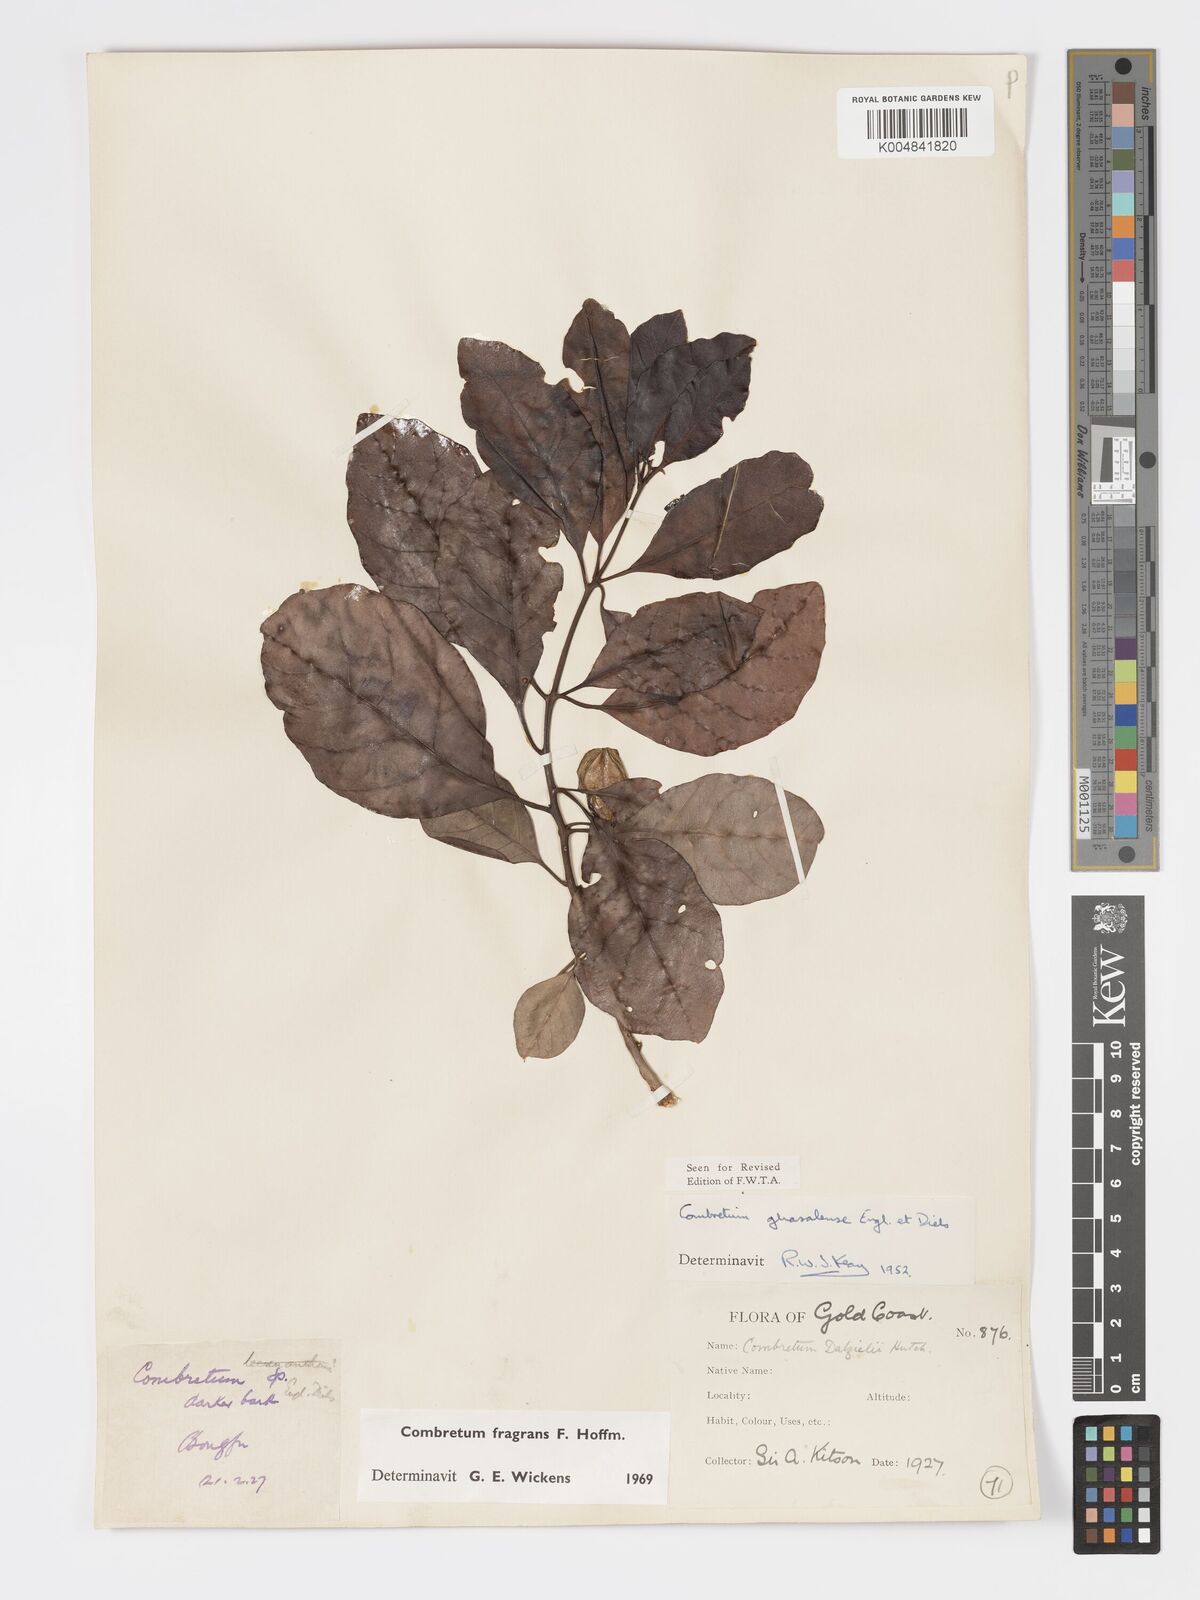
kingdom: Plantae
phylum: Tracheophyta
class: Magnoliopsida
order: Myrtales
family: Combretaceae
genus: Combretum
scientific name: Combretum adenogonium
